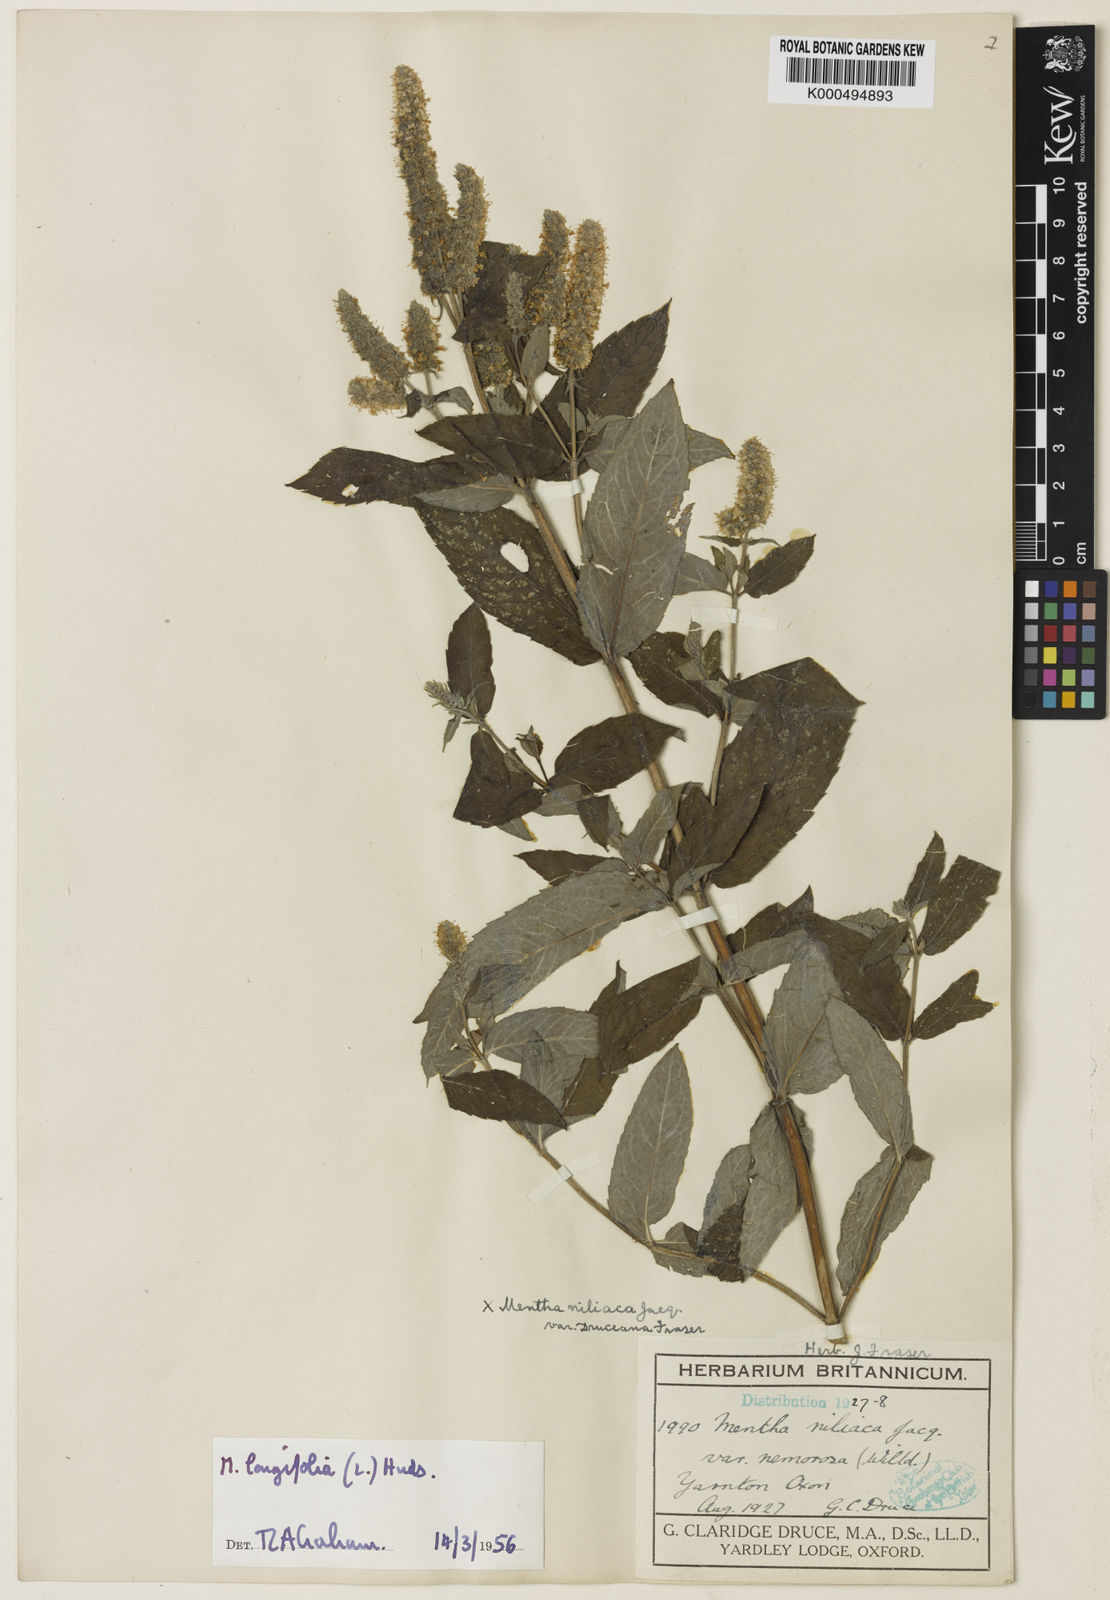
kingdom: Plantae
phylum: Tracheophyta
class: Magnoliopsida
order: Lamiales
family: Lamiaceae
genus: Mentha
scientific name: Mentha villosa
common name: Apple mint
